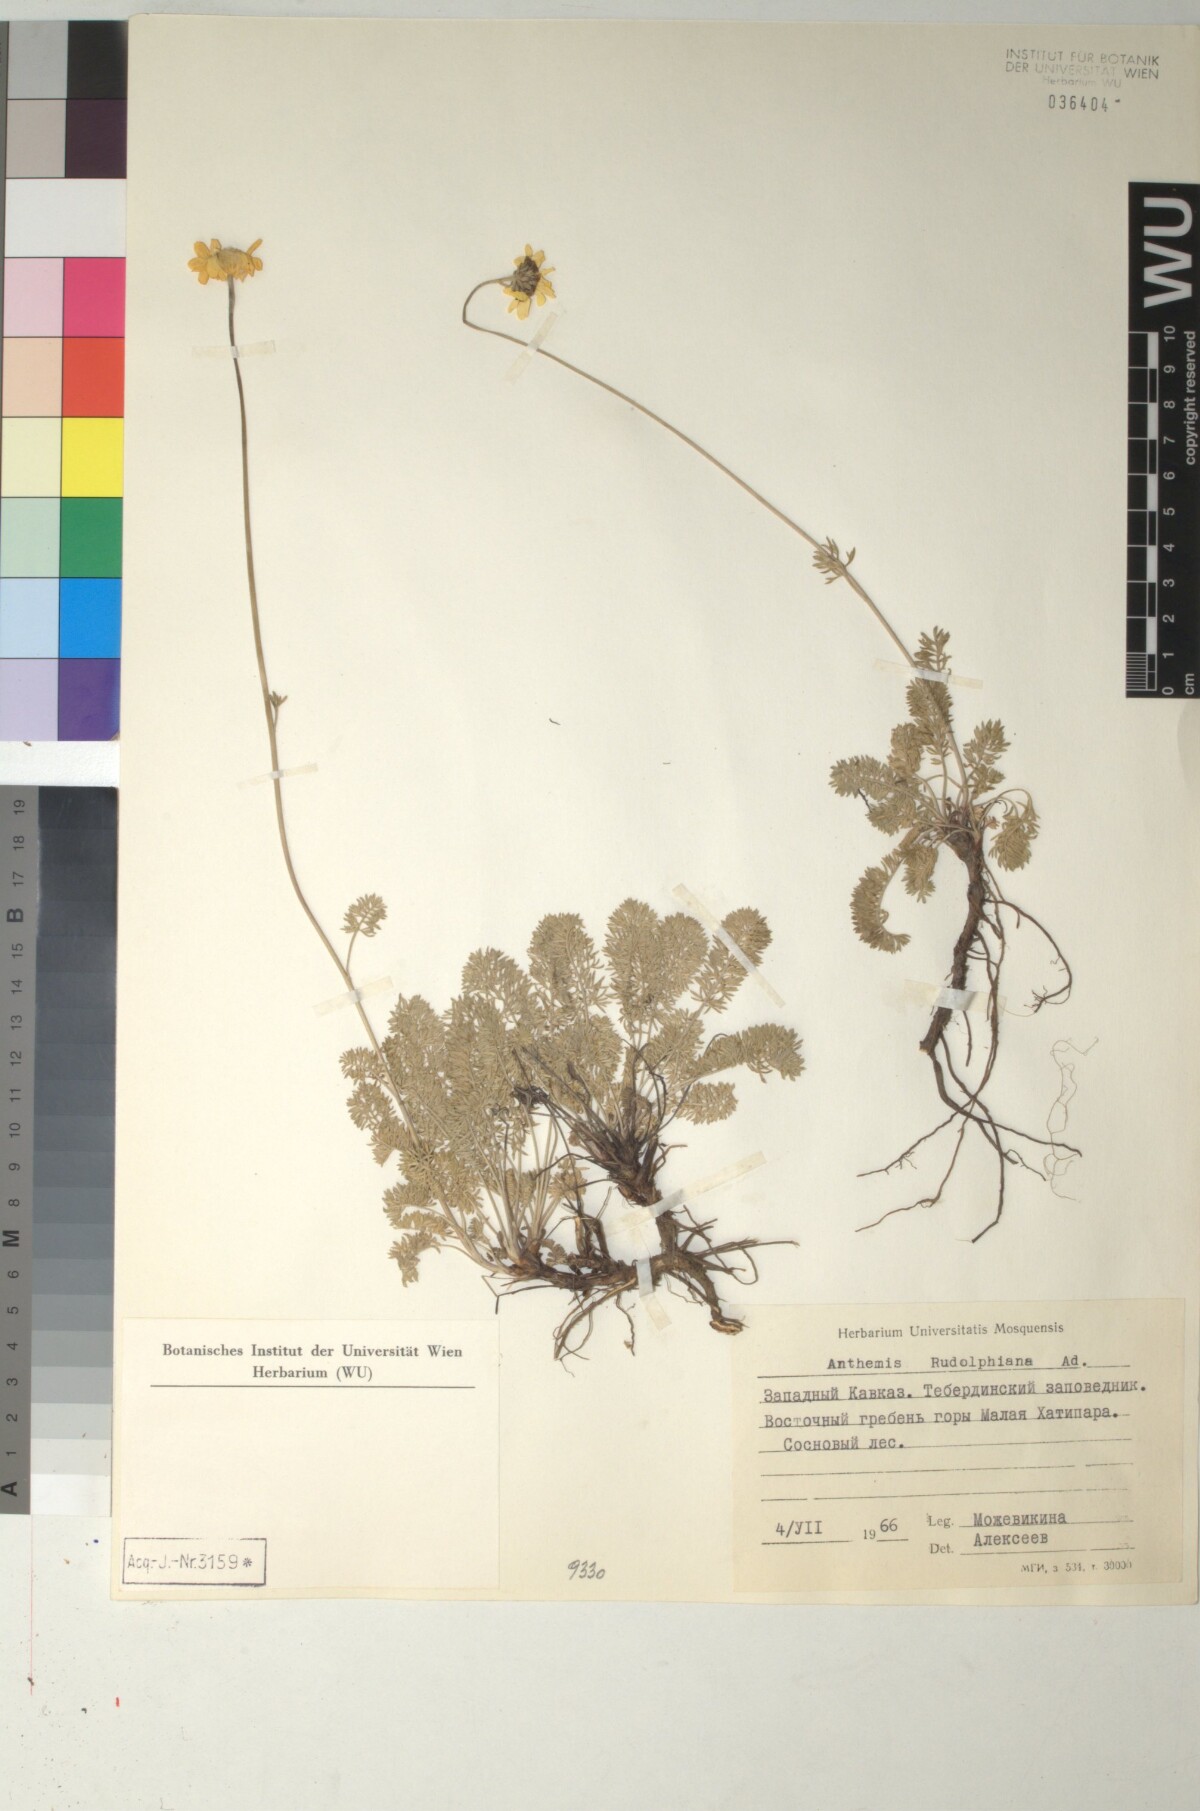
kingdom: Plantae
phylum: Tracheophyta
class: Magnoliopsida
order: Asterales
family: Asteraceae
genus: Archanthemis
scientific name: Archanthemis marschalliana
